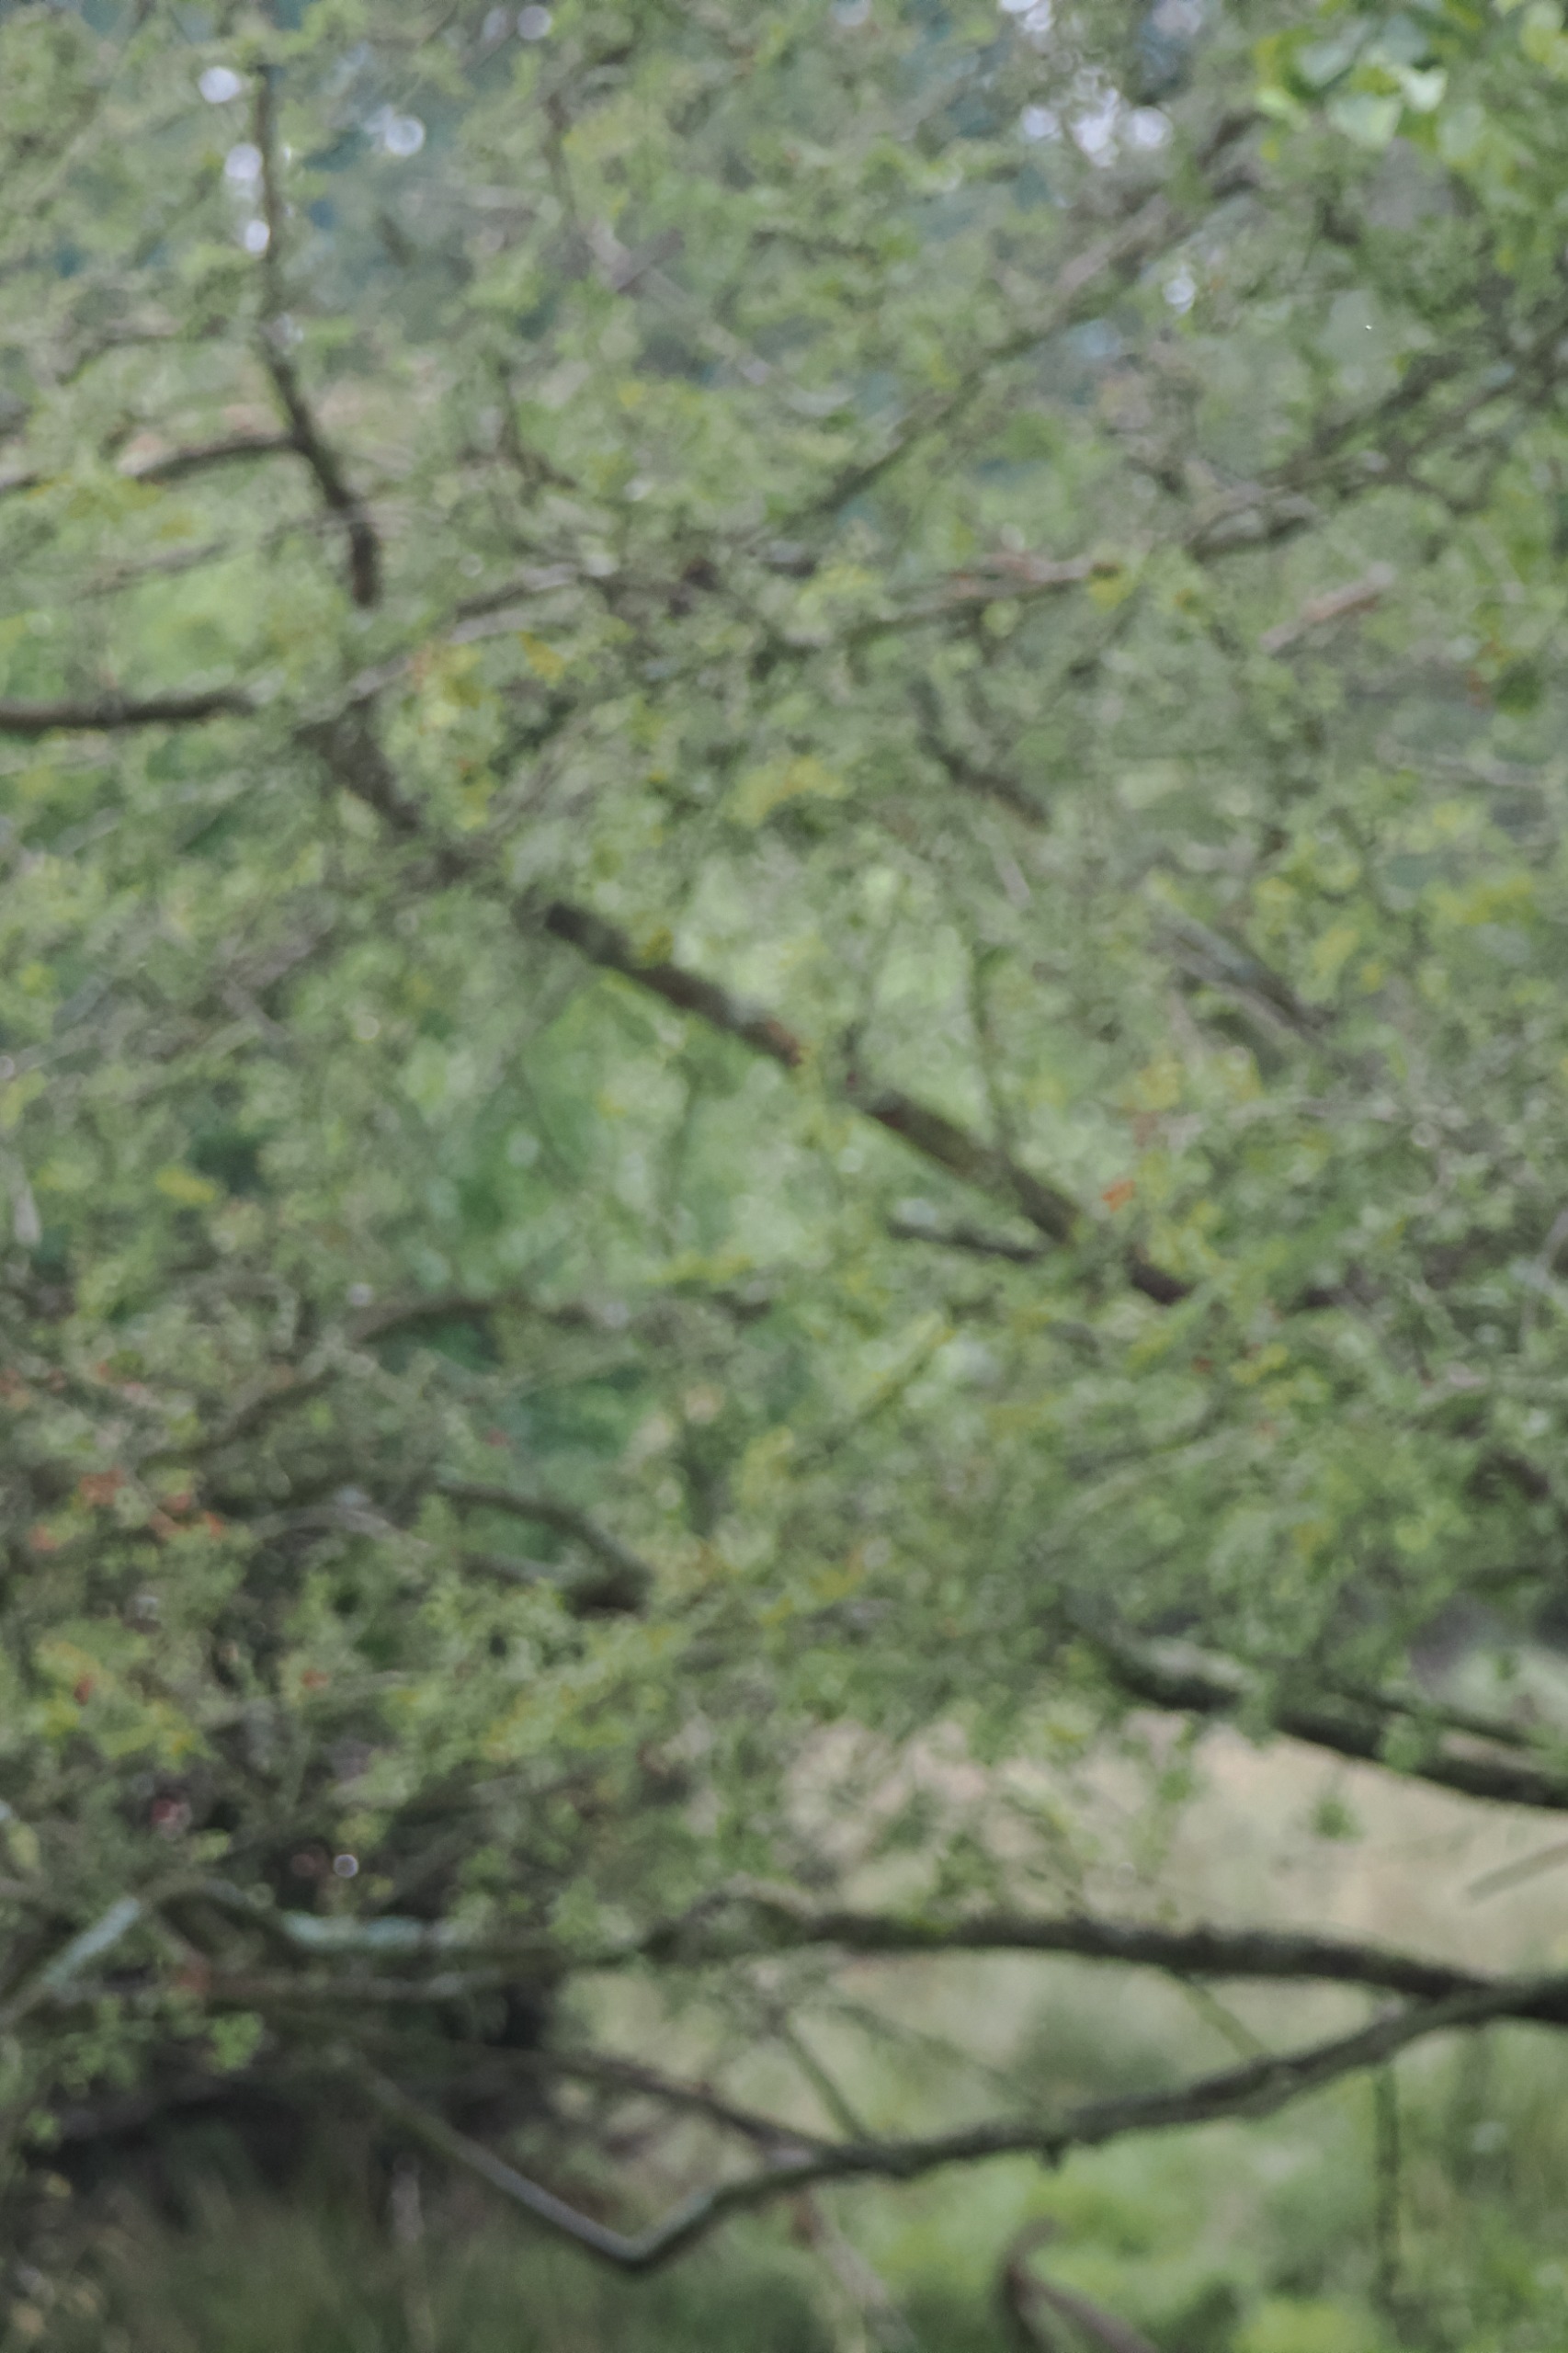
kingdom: Plantae
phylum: Tracheophyta
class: Magnoliopsida
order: Rosales
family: Rosaceae
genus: Crataegus
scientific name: Crataegus
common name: Hvidtjørnslægten
